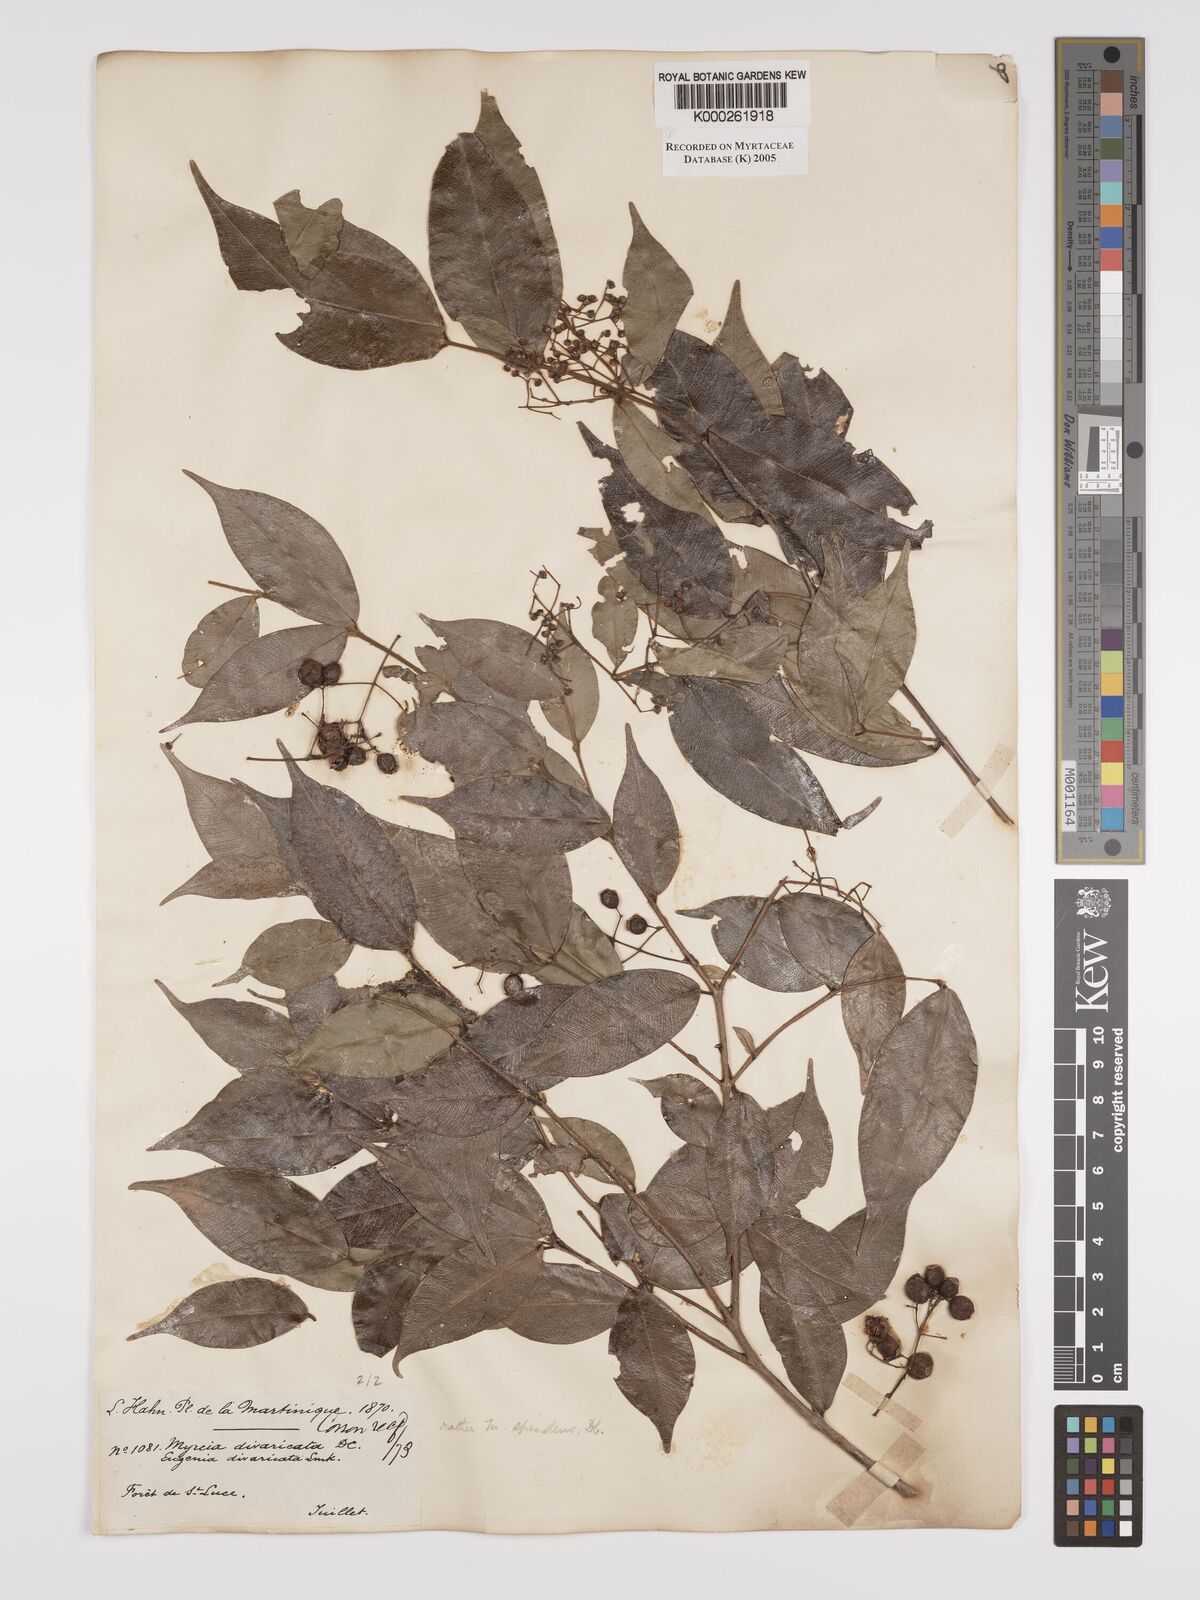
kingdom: Plantae
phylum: Tracheophyta
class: Magnoliopsida
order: Myrtales
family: Myrtaceae
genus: Myrcia
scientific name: Myrcia splendens
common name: Surinam cherry
